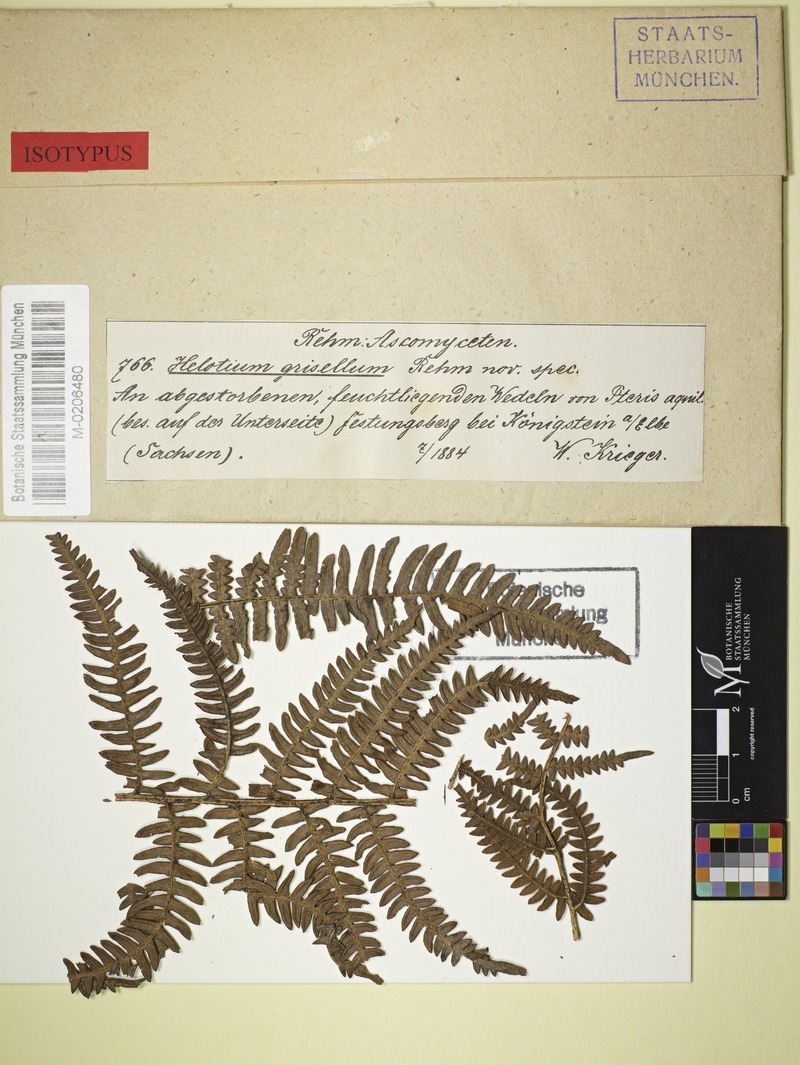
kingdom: Fungi
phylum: Ascomycota
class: Leotiomycetes
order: Helotiales
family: Hamatocanthoscyphaceae
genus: Microscypha
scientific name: Microscypha grisella
